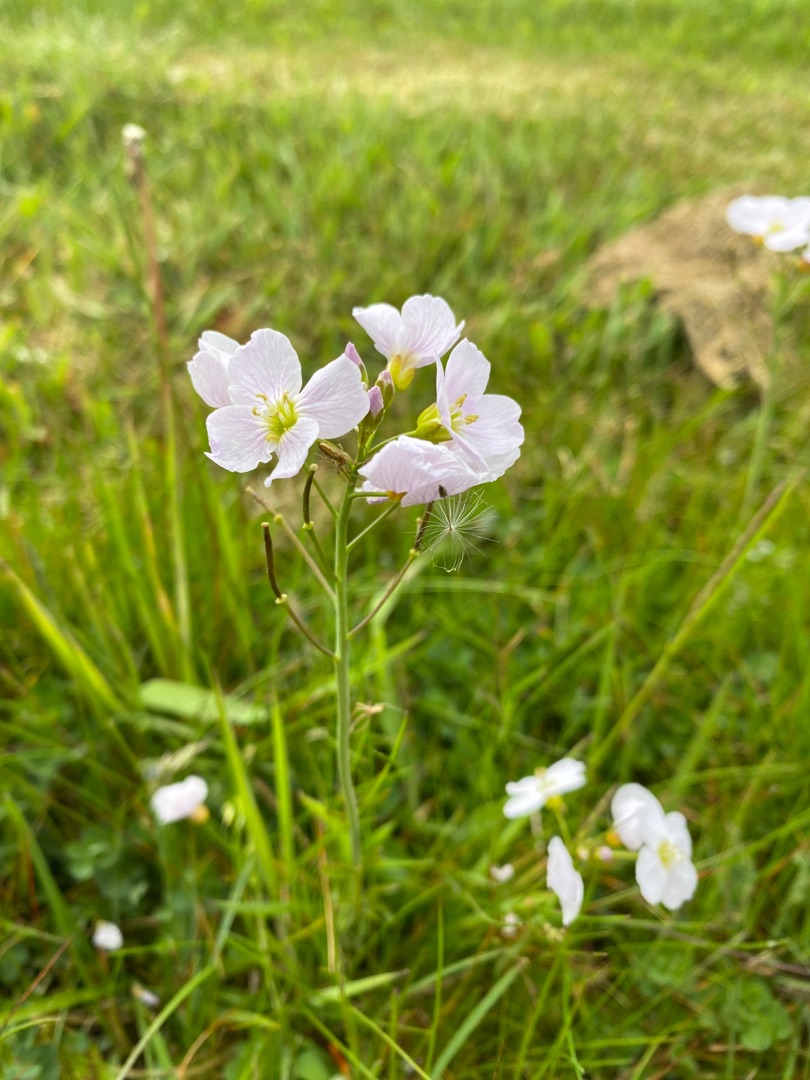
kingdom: Plantae
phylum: Tracheophyta
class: Magnoliopsida
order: Brassicales
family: Brassicaceae
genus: Cardamine
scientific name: Cardamine pratensis
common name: Engkarse
